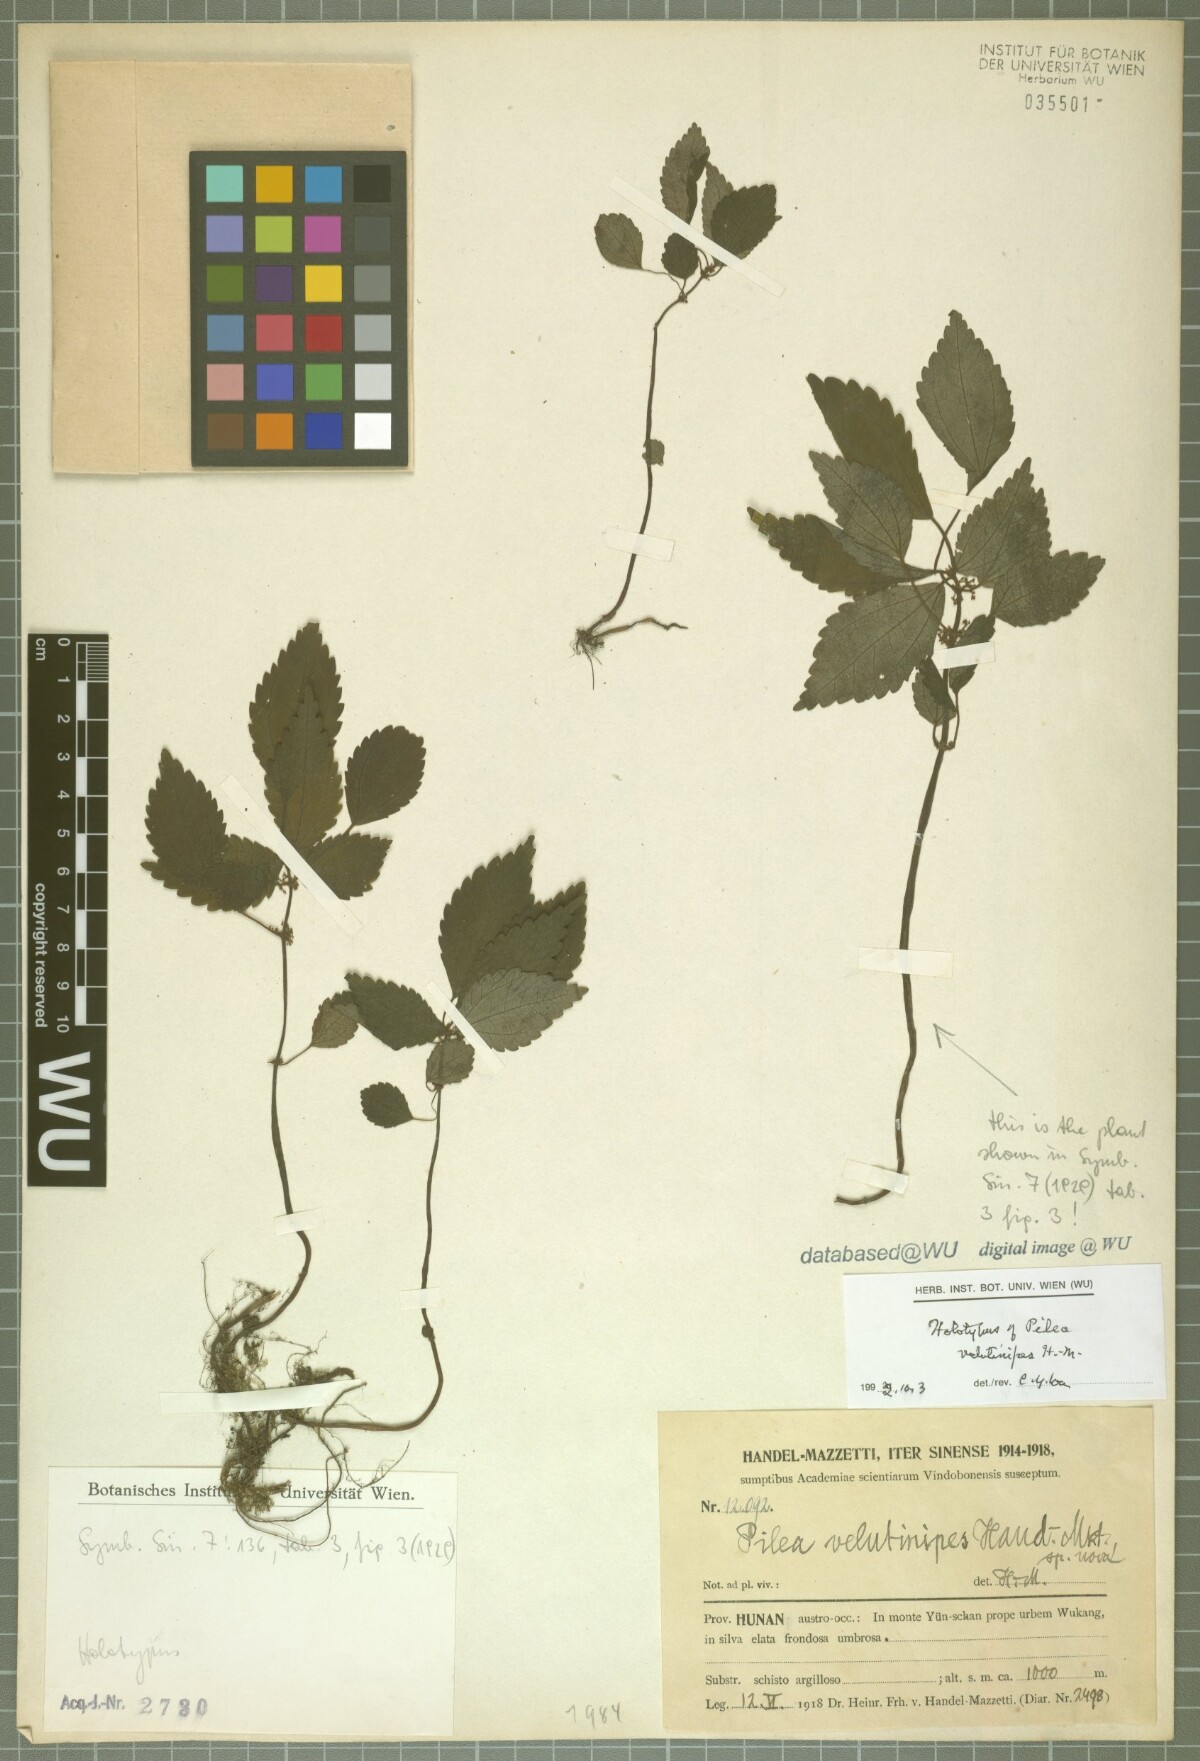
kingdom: Plantae
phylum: Tracheophyta
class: Magnoliopsida
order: Rosales
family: Urticaceae
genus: Pilea
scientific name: Pilea aquarum
